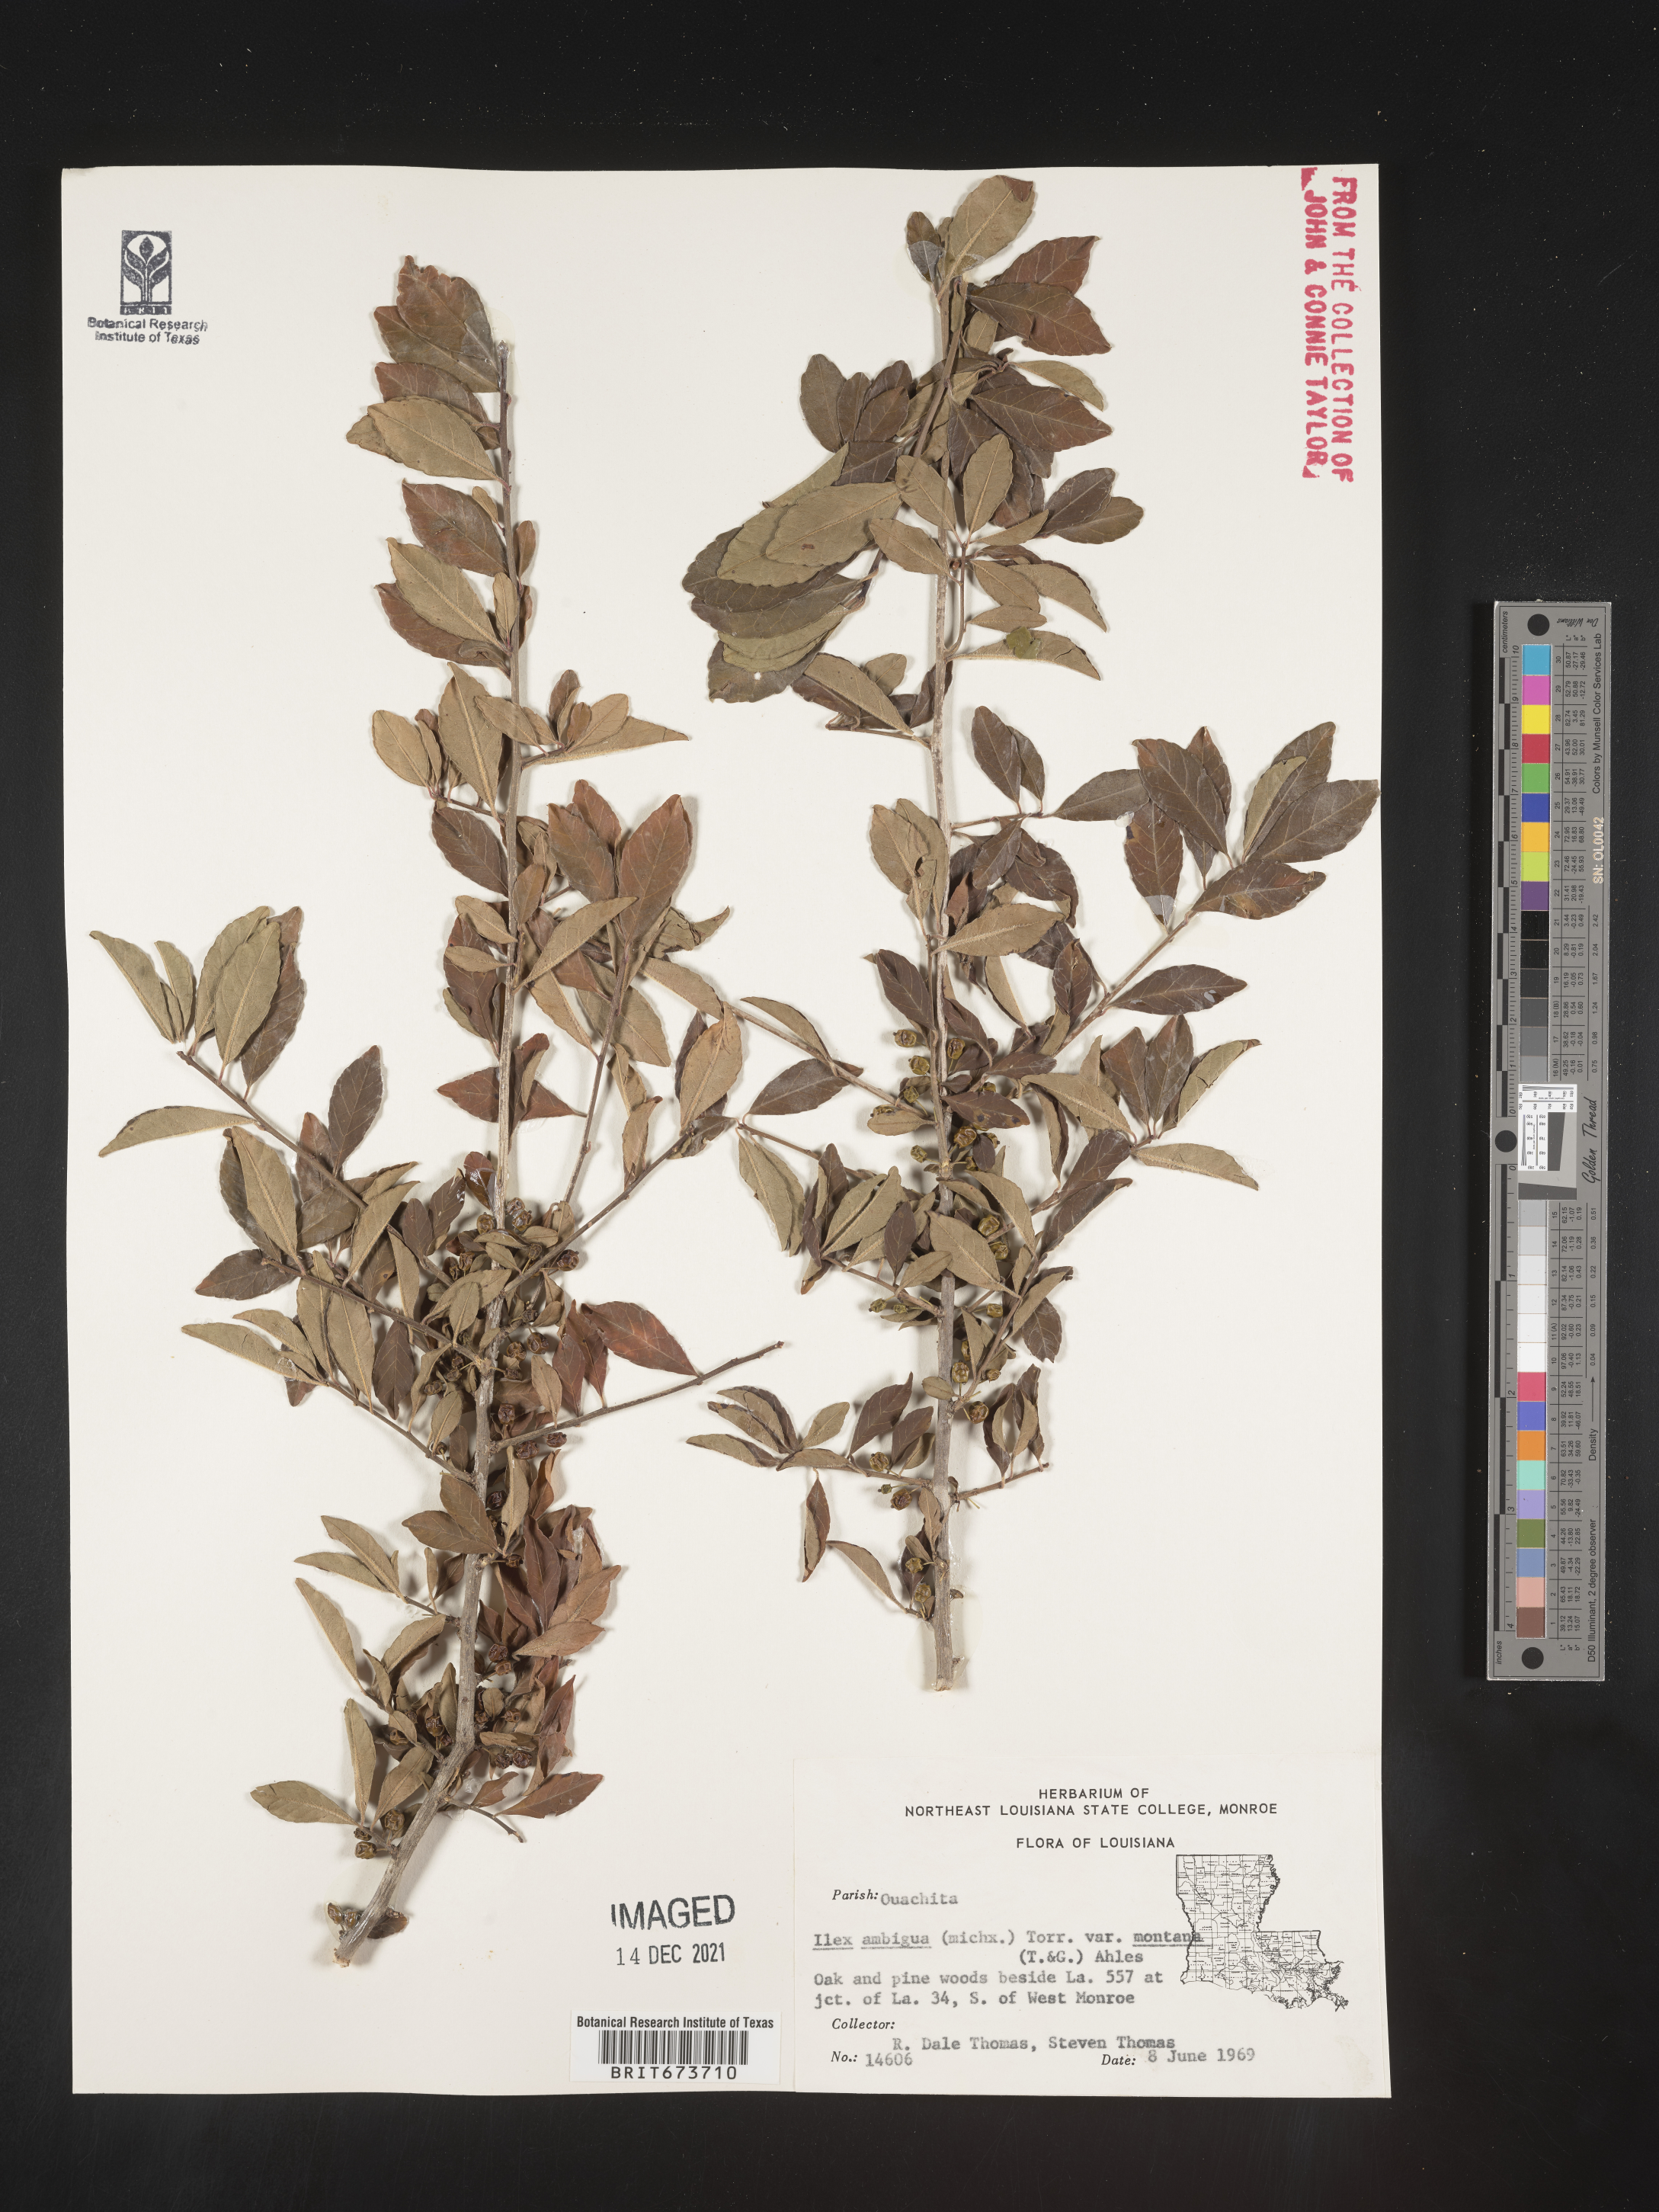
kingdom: Plantae
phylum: Tracheophyta
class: Magnoliopsida
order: Aquifoliales
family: Aquifoliaceae
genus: Ilex
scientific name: Ilex ambigua
